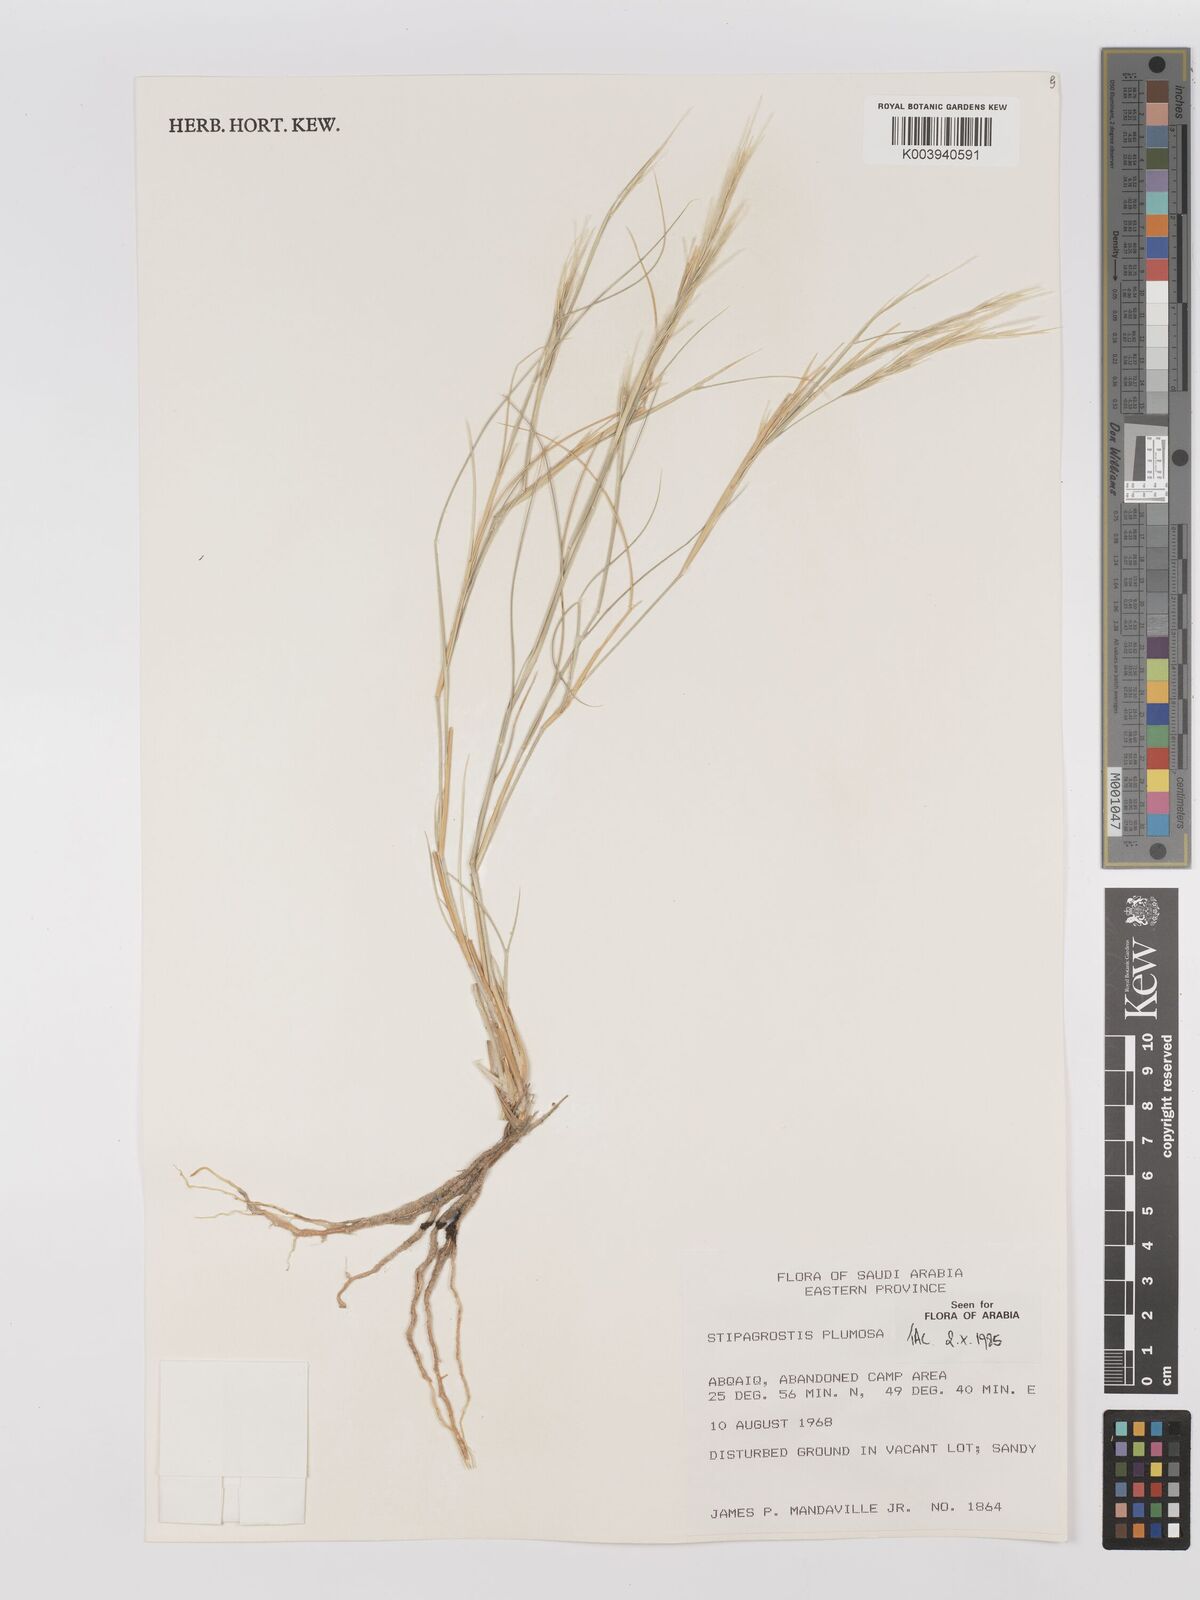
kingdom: Plantae
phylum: Tracheophyta
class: Liliopsida
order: Poales
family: Poaceae
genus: Stipagrostis
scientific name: Stipagrostis plumosa
